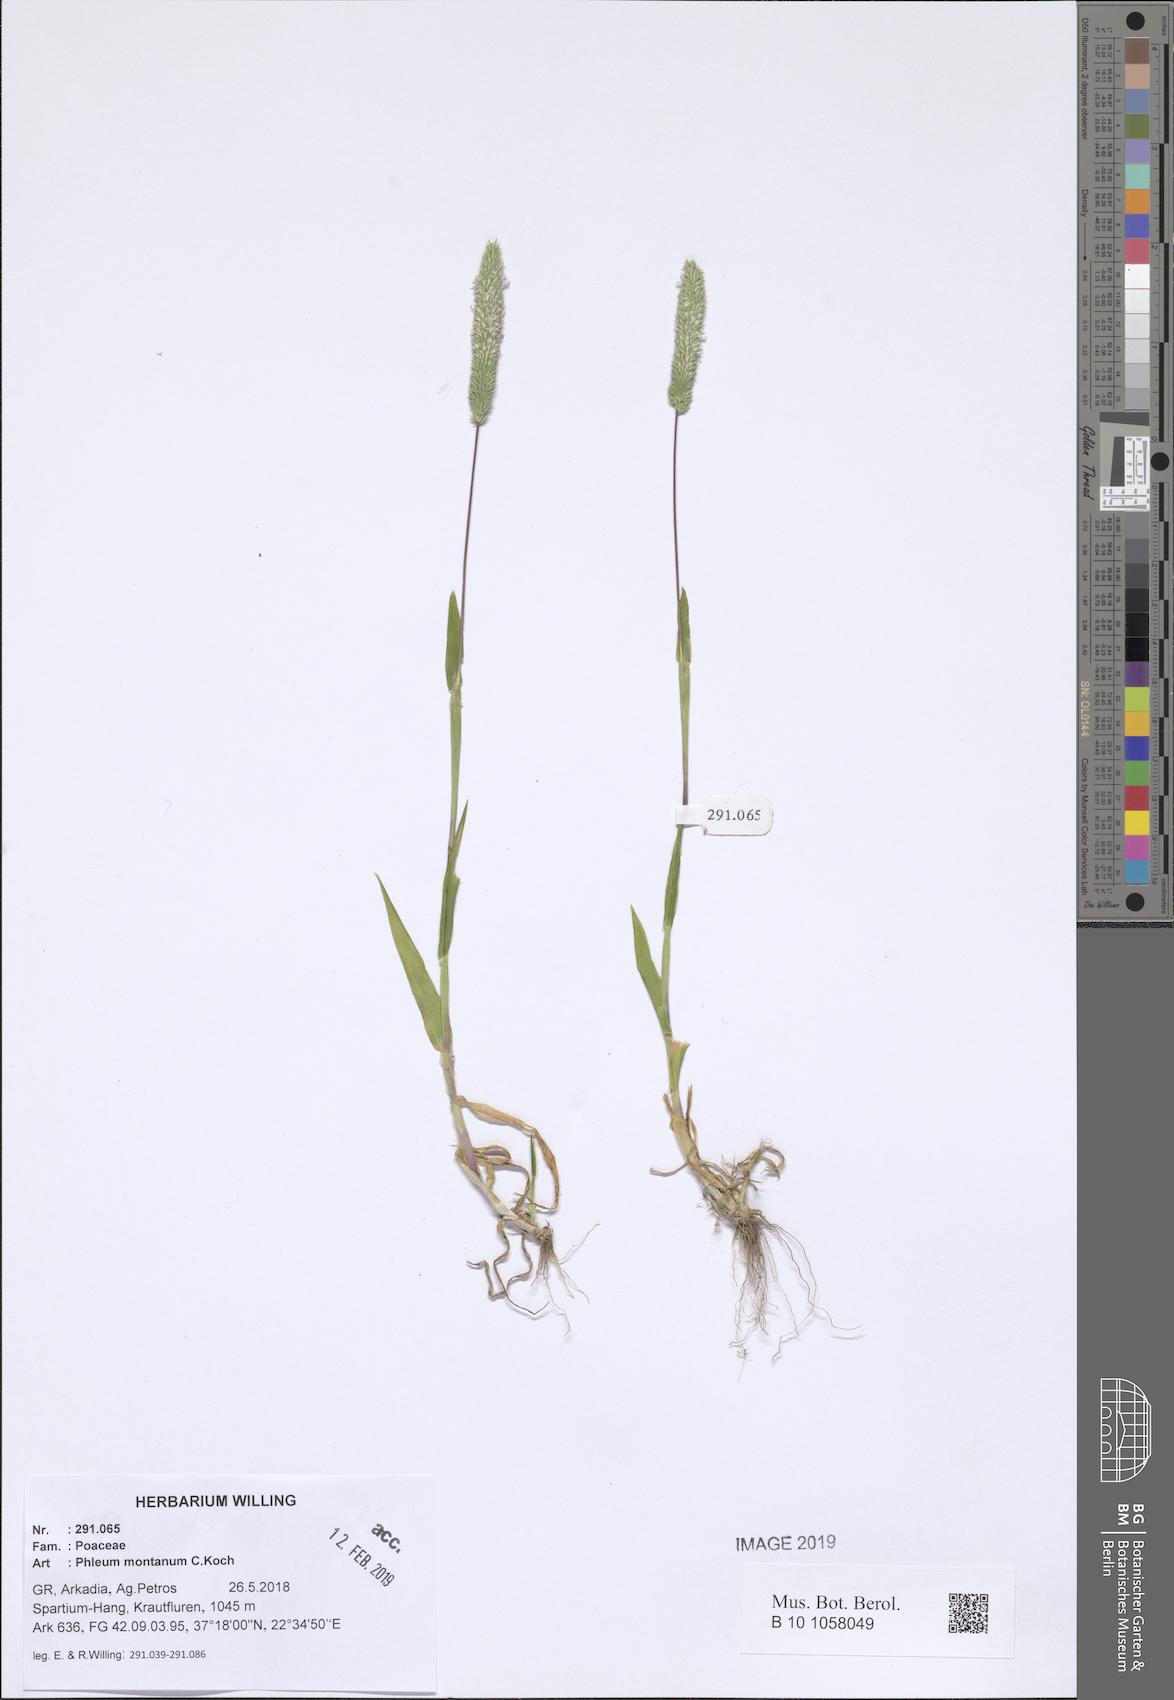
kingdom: Plantae
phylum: Tracheophyta
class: Liliopsida
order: Poales
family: Poaceae
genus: Phleum
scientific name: Phleum montanum
